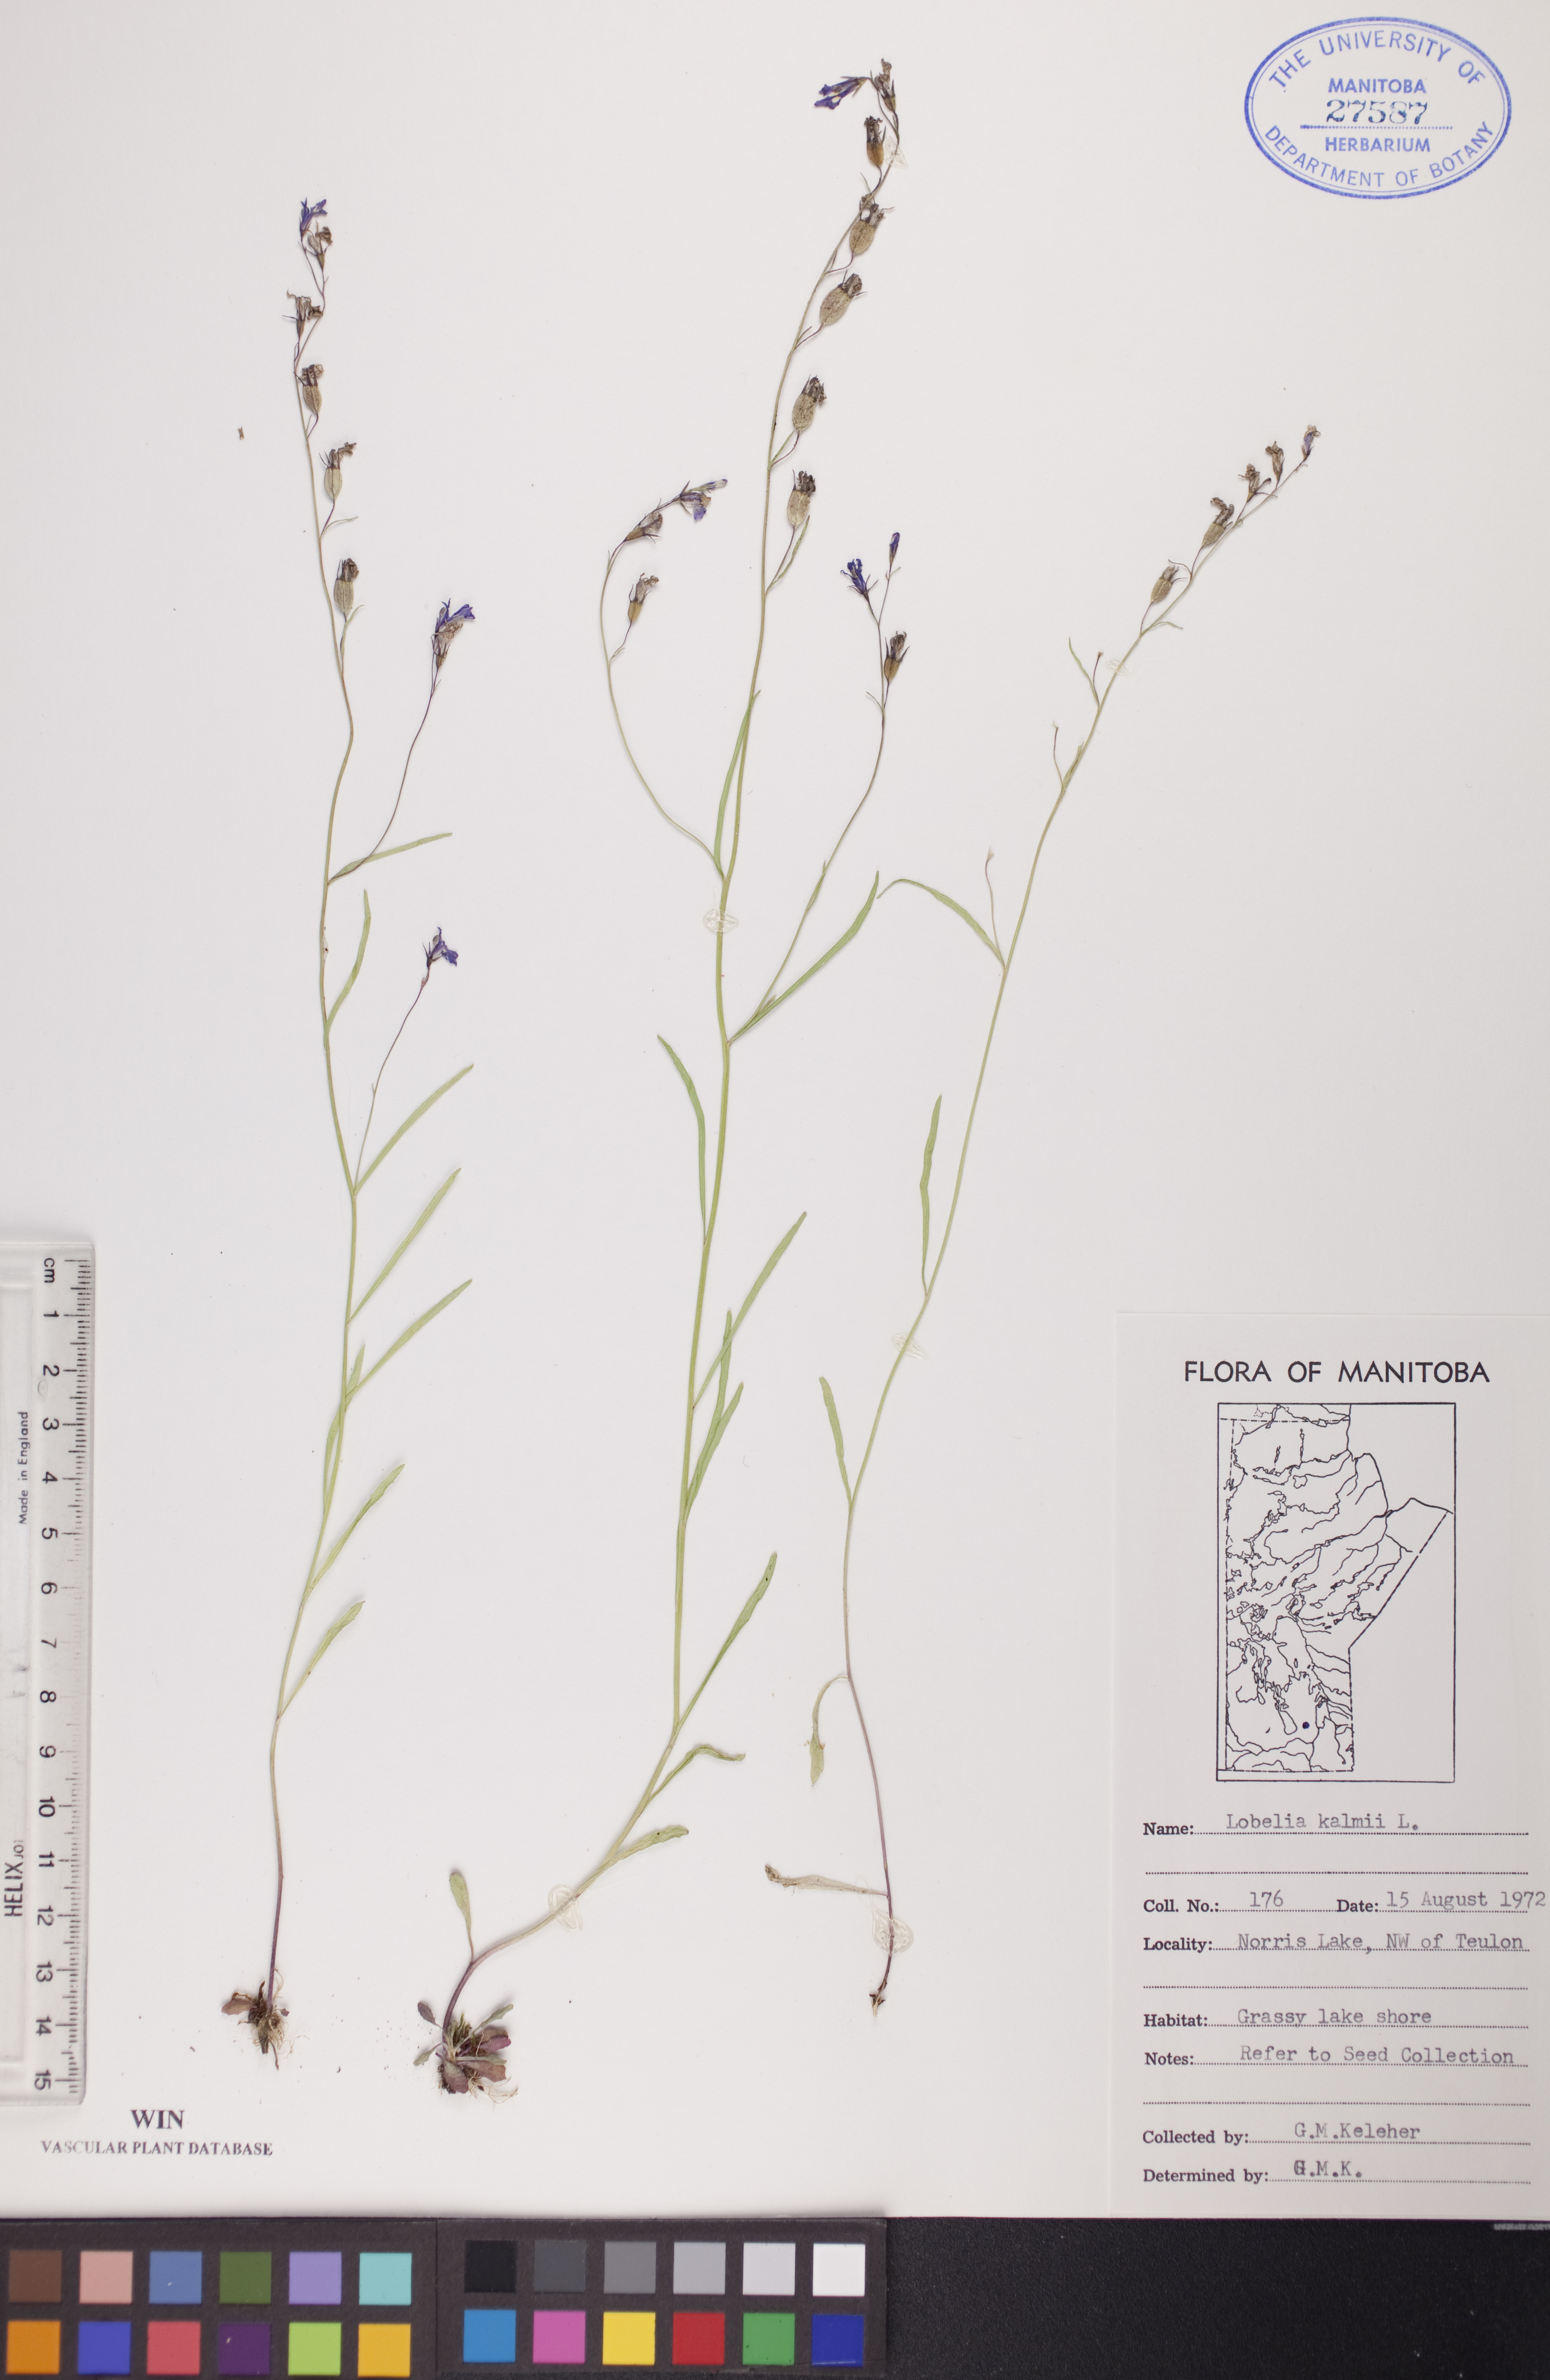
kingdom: Plantae
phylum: Tracheophyta
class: Magnoliopsida
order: Asterales
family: Campanulaceae
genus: Lobelia
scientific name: Lobelia kalmii
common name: Kalm's lobelia
